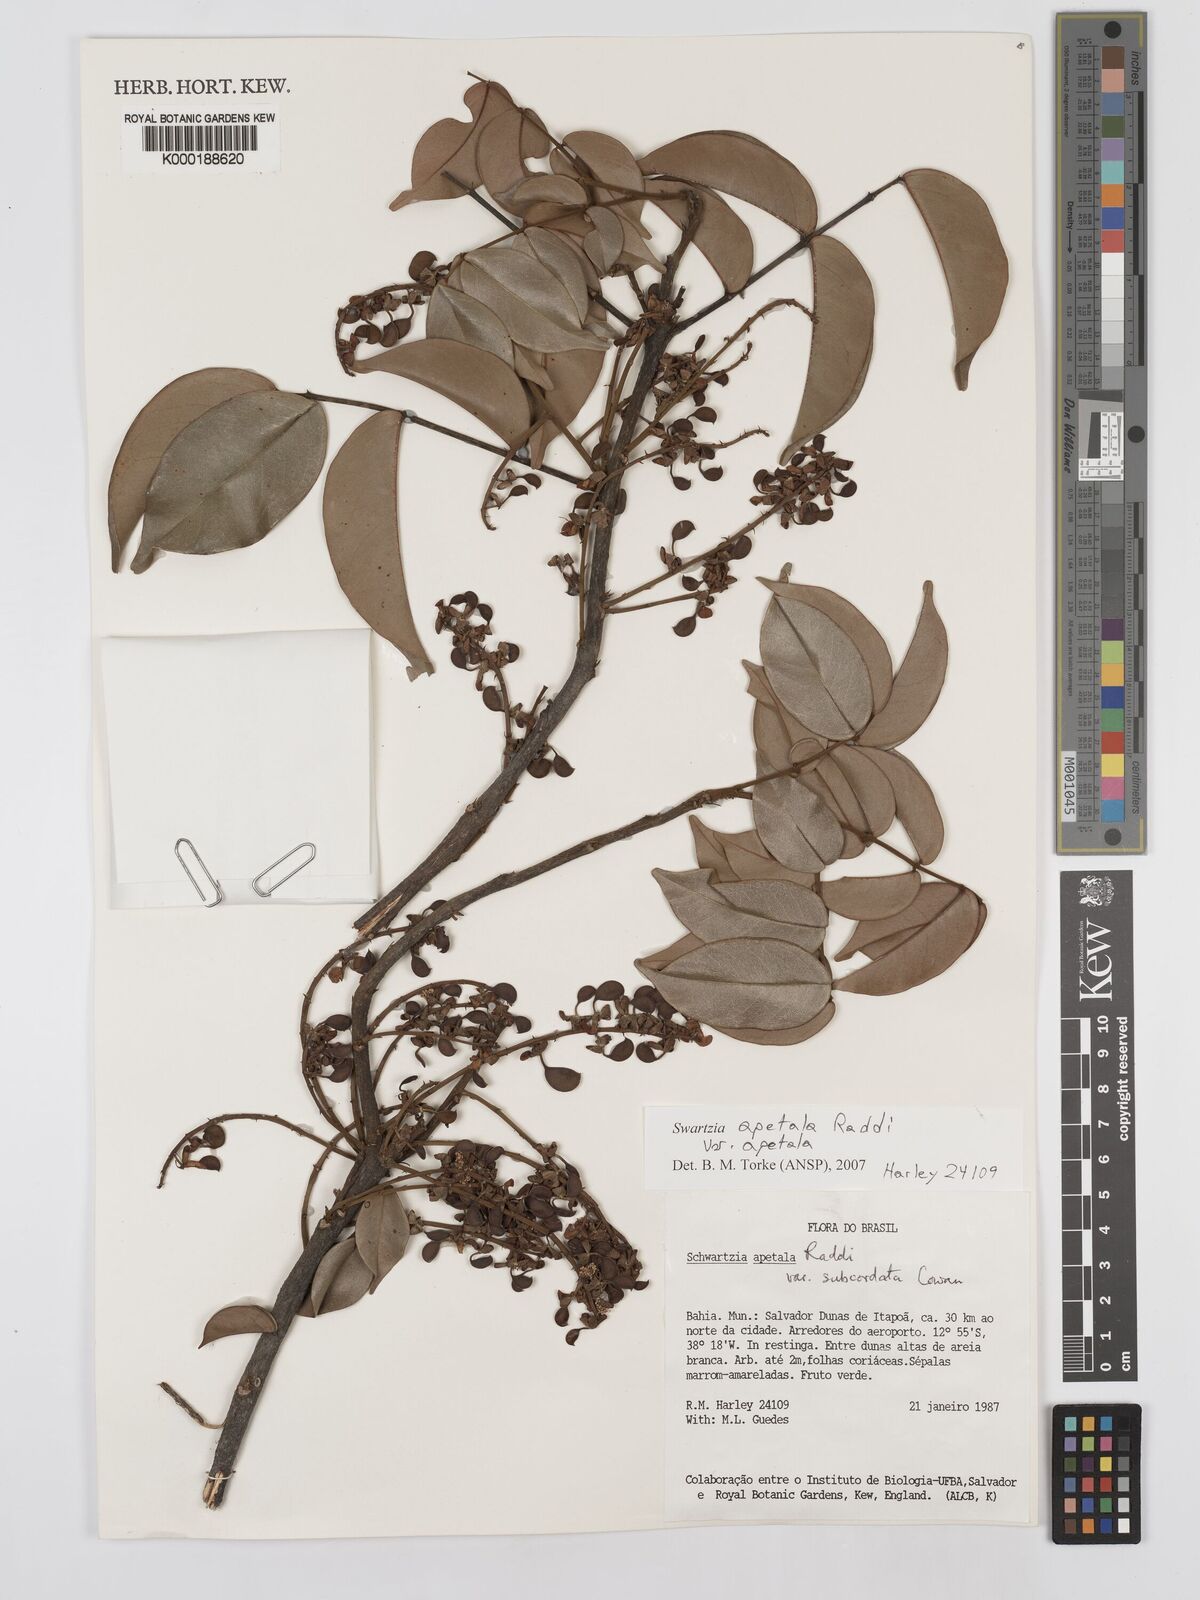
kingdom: Plantae
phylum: Tracheophyta
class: Magnoliopsida
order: Fabales
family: Fabaceae
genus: Swartzia
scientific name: Swartzia apetala
